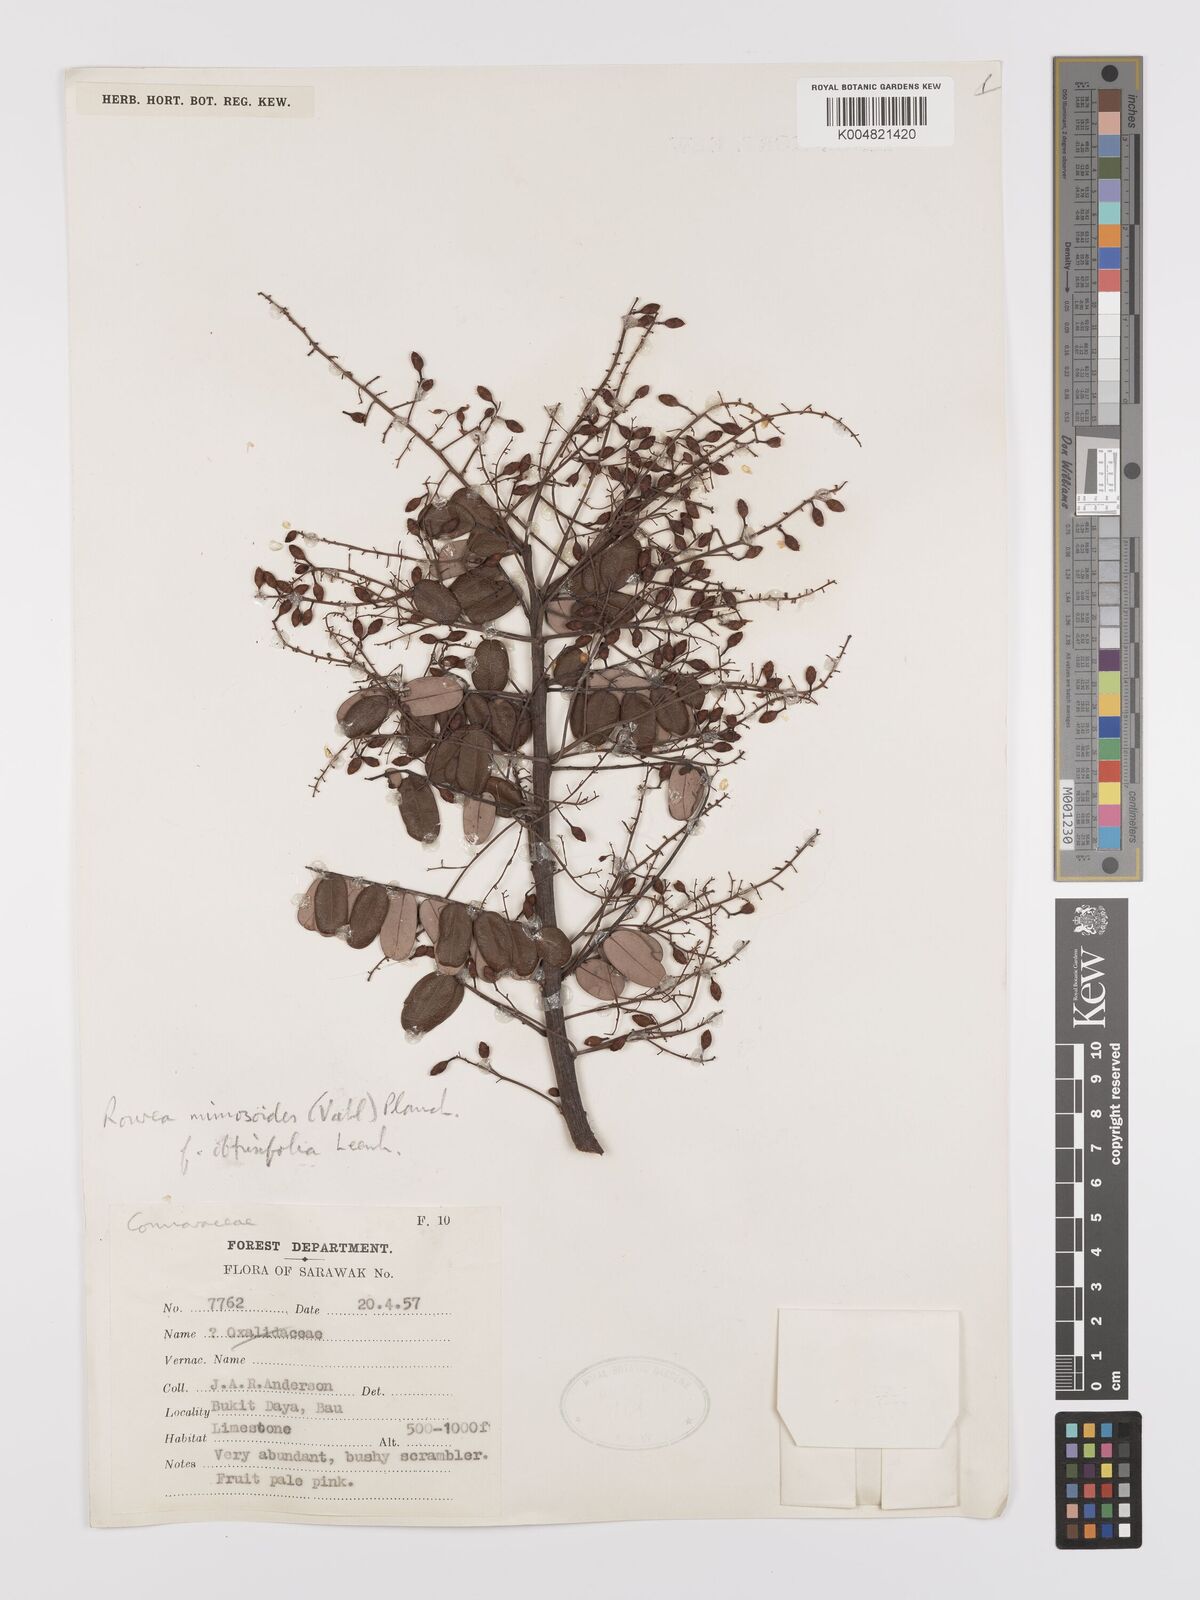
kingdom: Plantae
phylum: Tracheophyta
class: Magnoliopsida
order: Oxalidales
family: Connaraceae
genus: Rourea
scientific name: Rourea mimosoides
